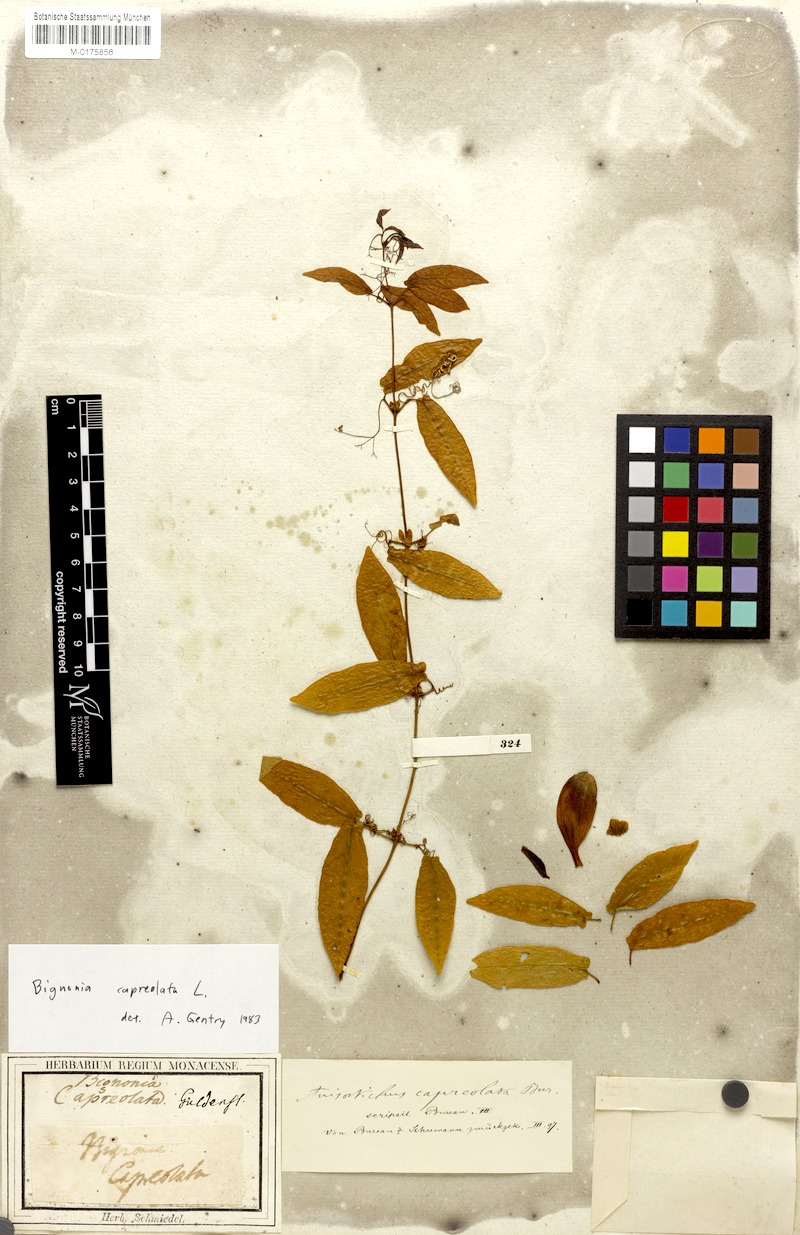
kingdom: Plantae
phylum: Tracheophyta
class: Magnoliopsida
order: Lamiales
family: Bignoniaceae
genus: Bignonia
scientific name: Bignonia capreolata
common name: Crossvine
